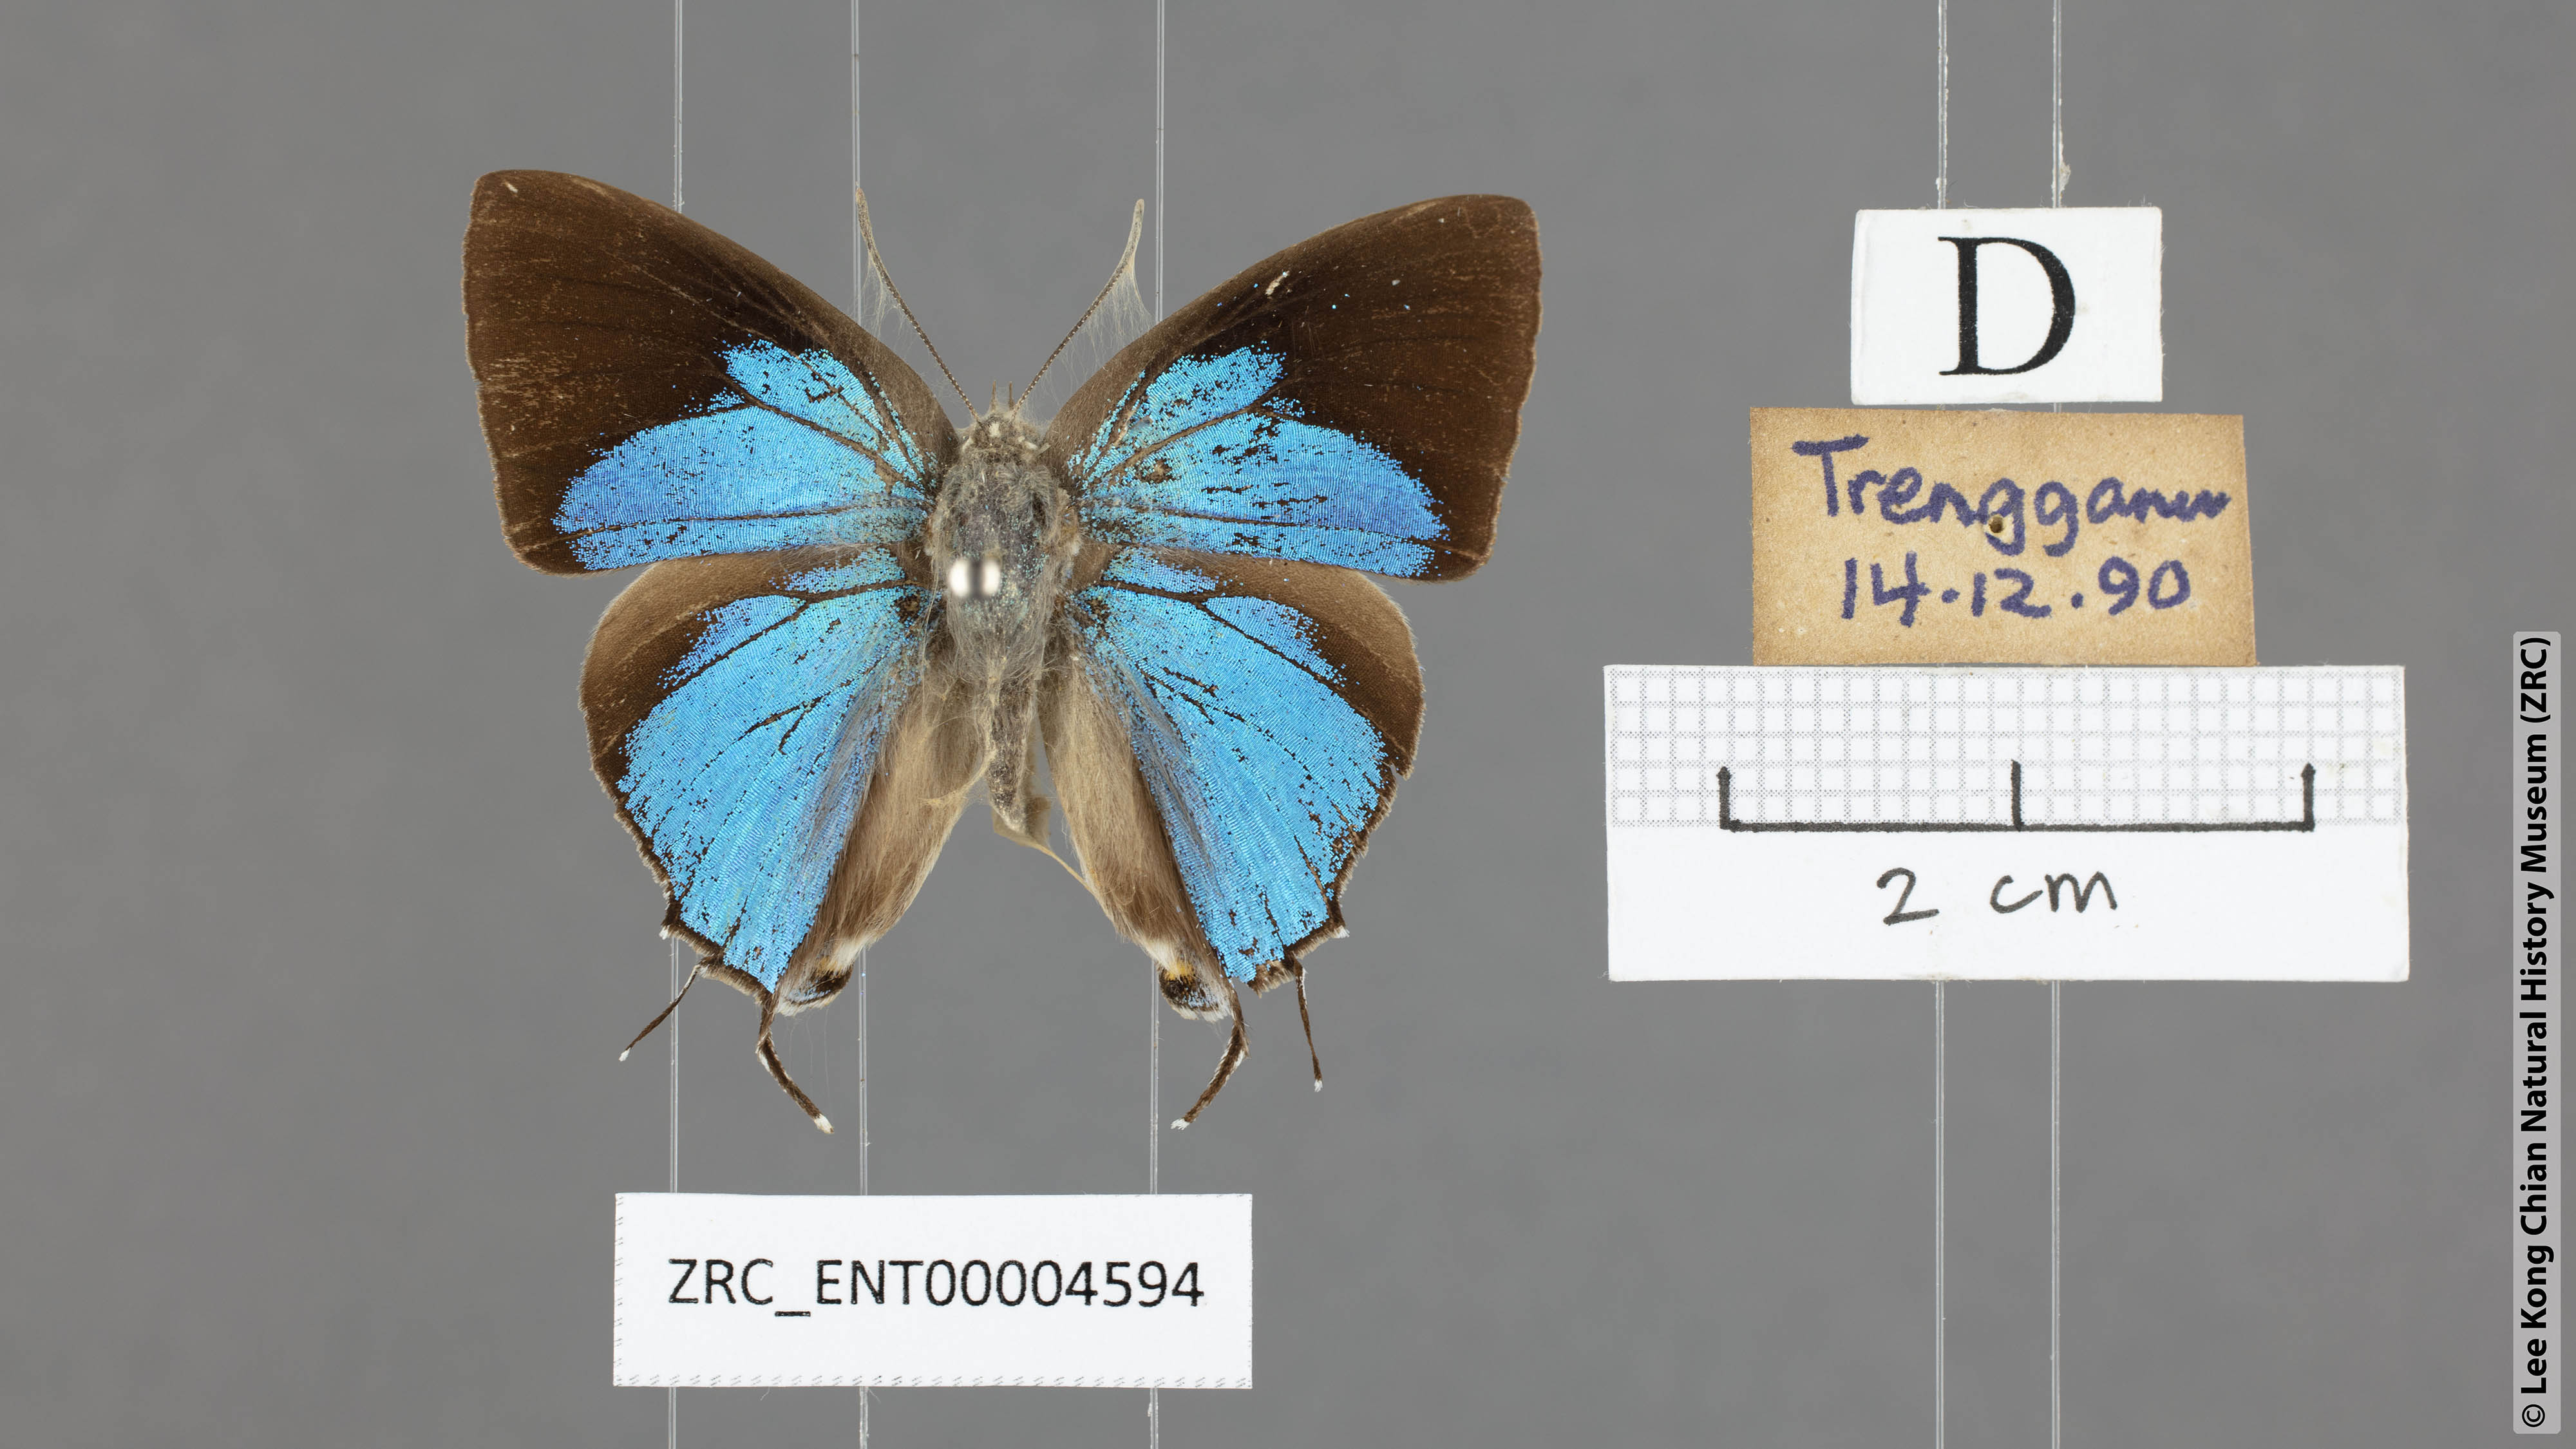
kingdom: Animalia
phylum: Arthropoda
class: Insecta
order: Lepidoptera
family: Lycaenidae
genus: Tajuria
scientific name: Tajuria cippus
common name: Peacock royal
